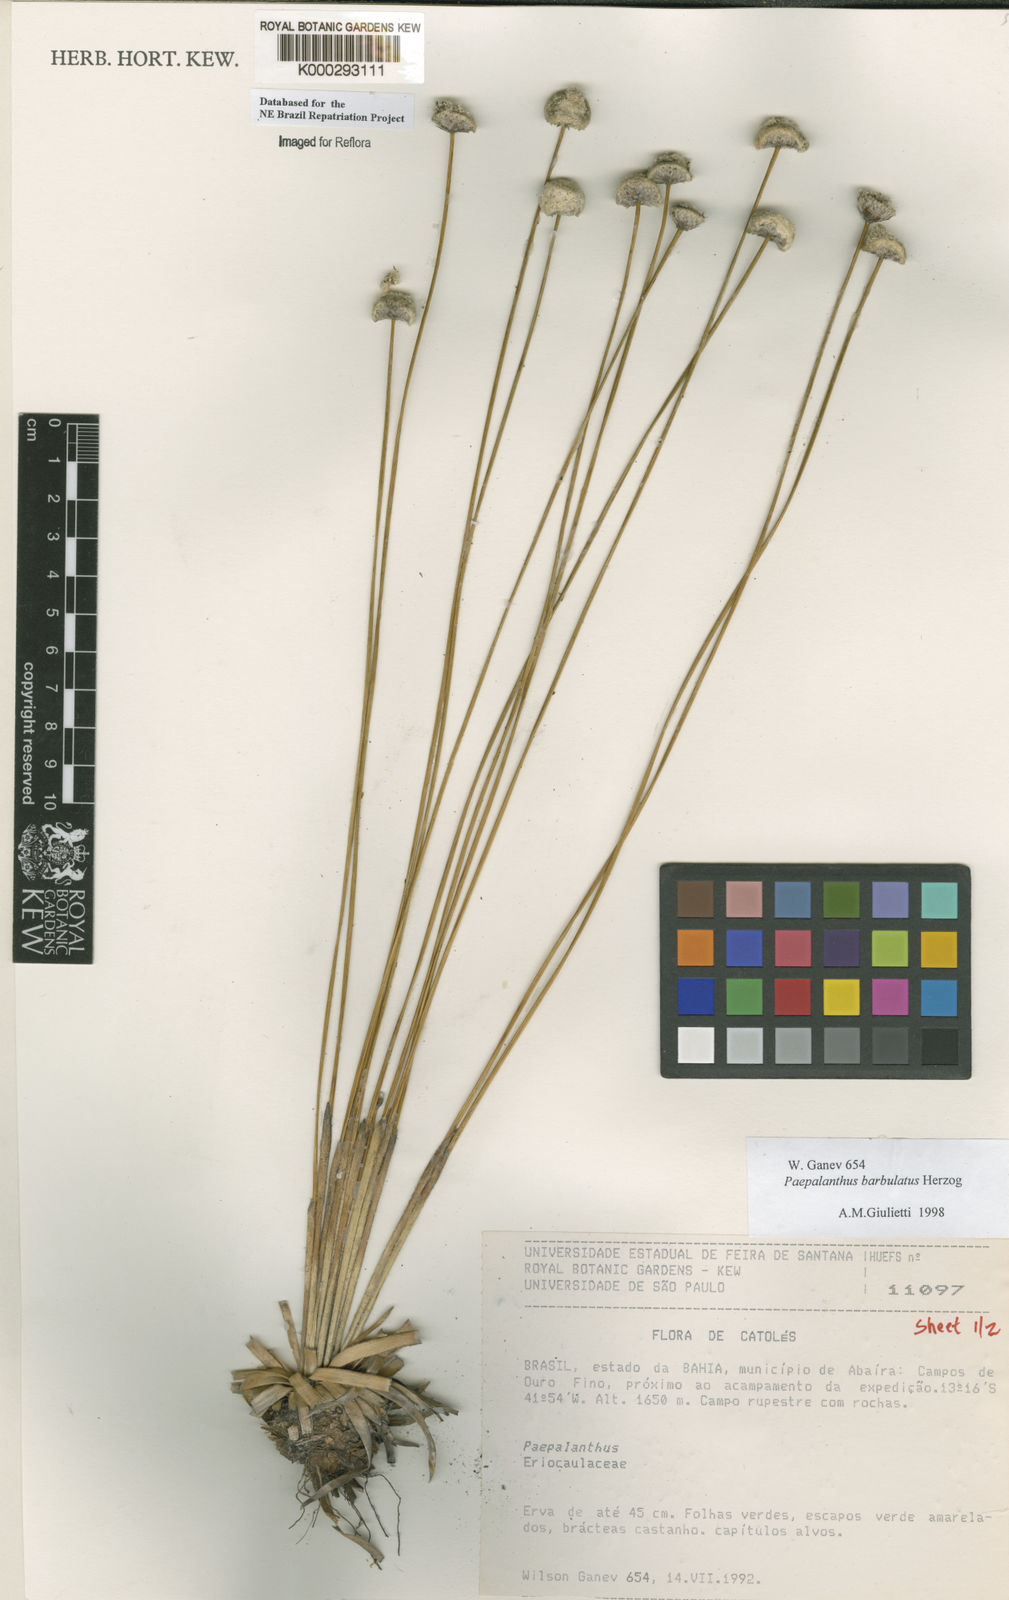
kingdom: Plantae
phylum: Tracheophyta
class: Liliopsida
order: Poales
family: Eriocaulaceae
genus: Paepalanthus
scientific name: Paepalanthus barbulatus
